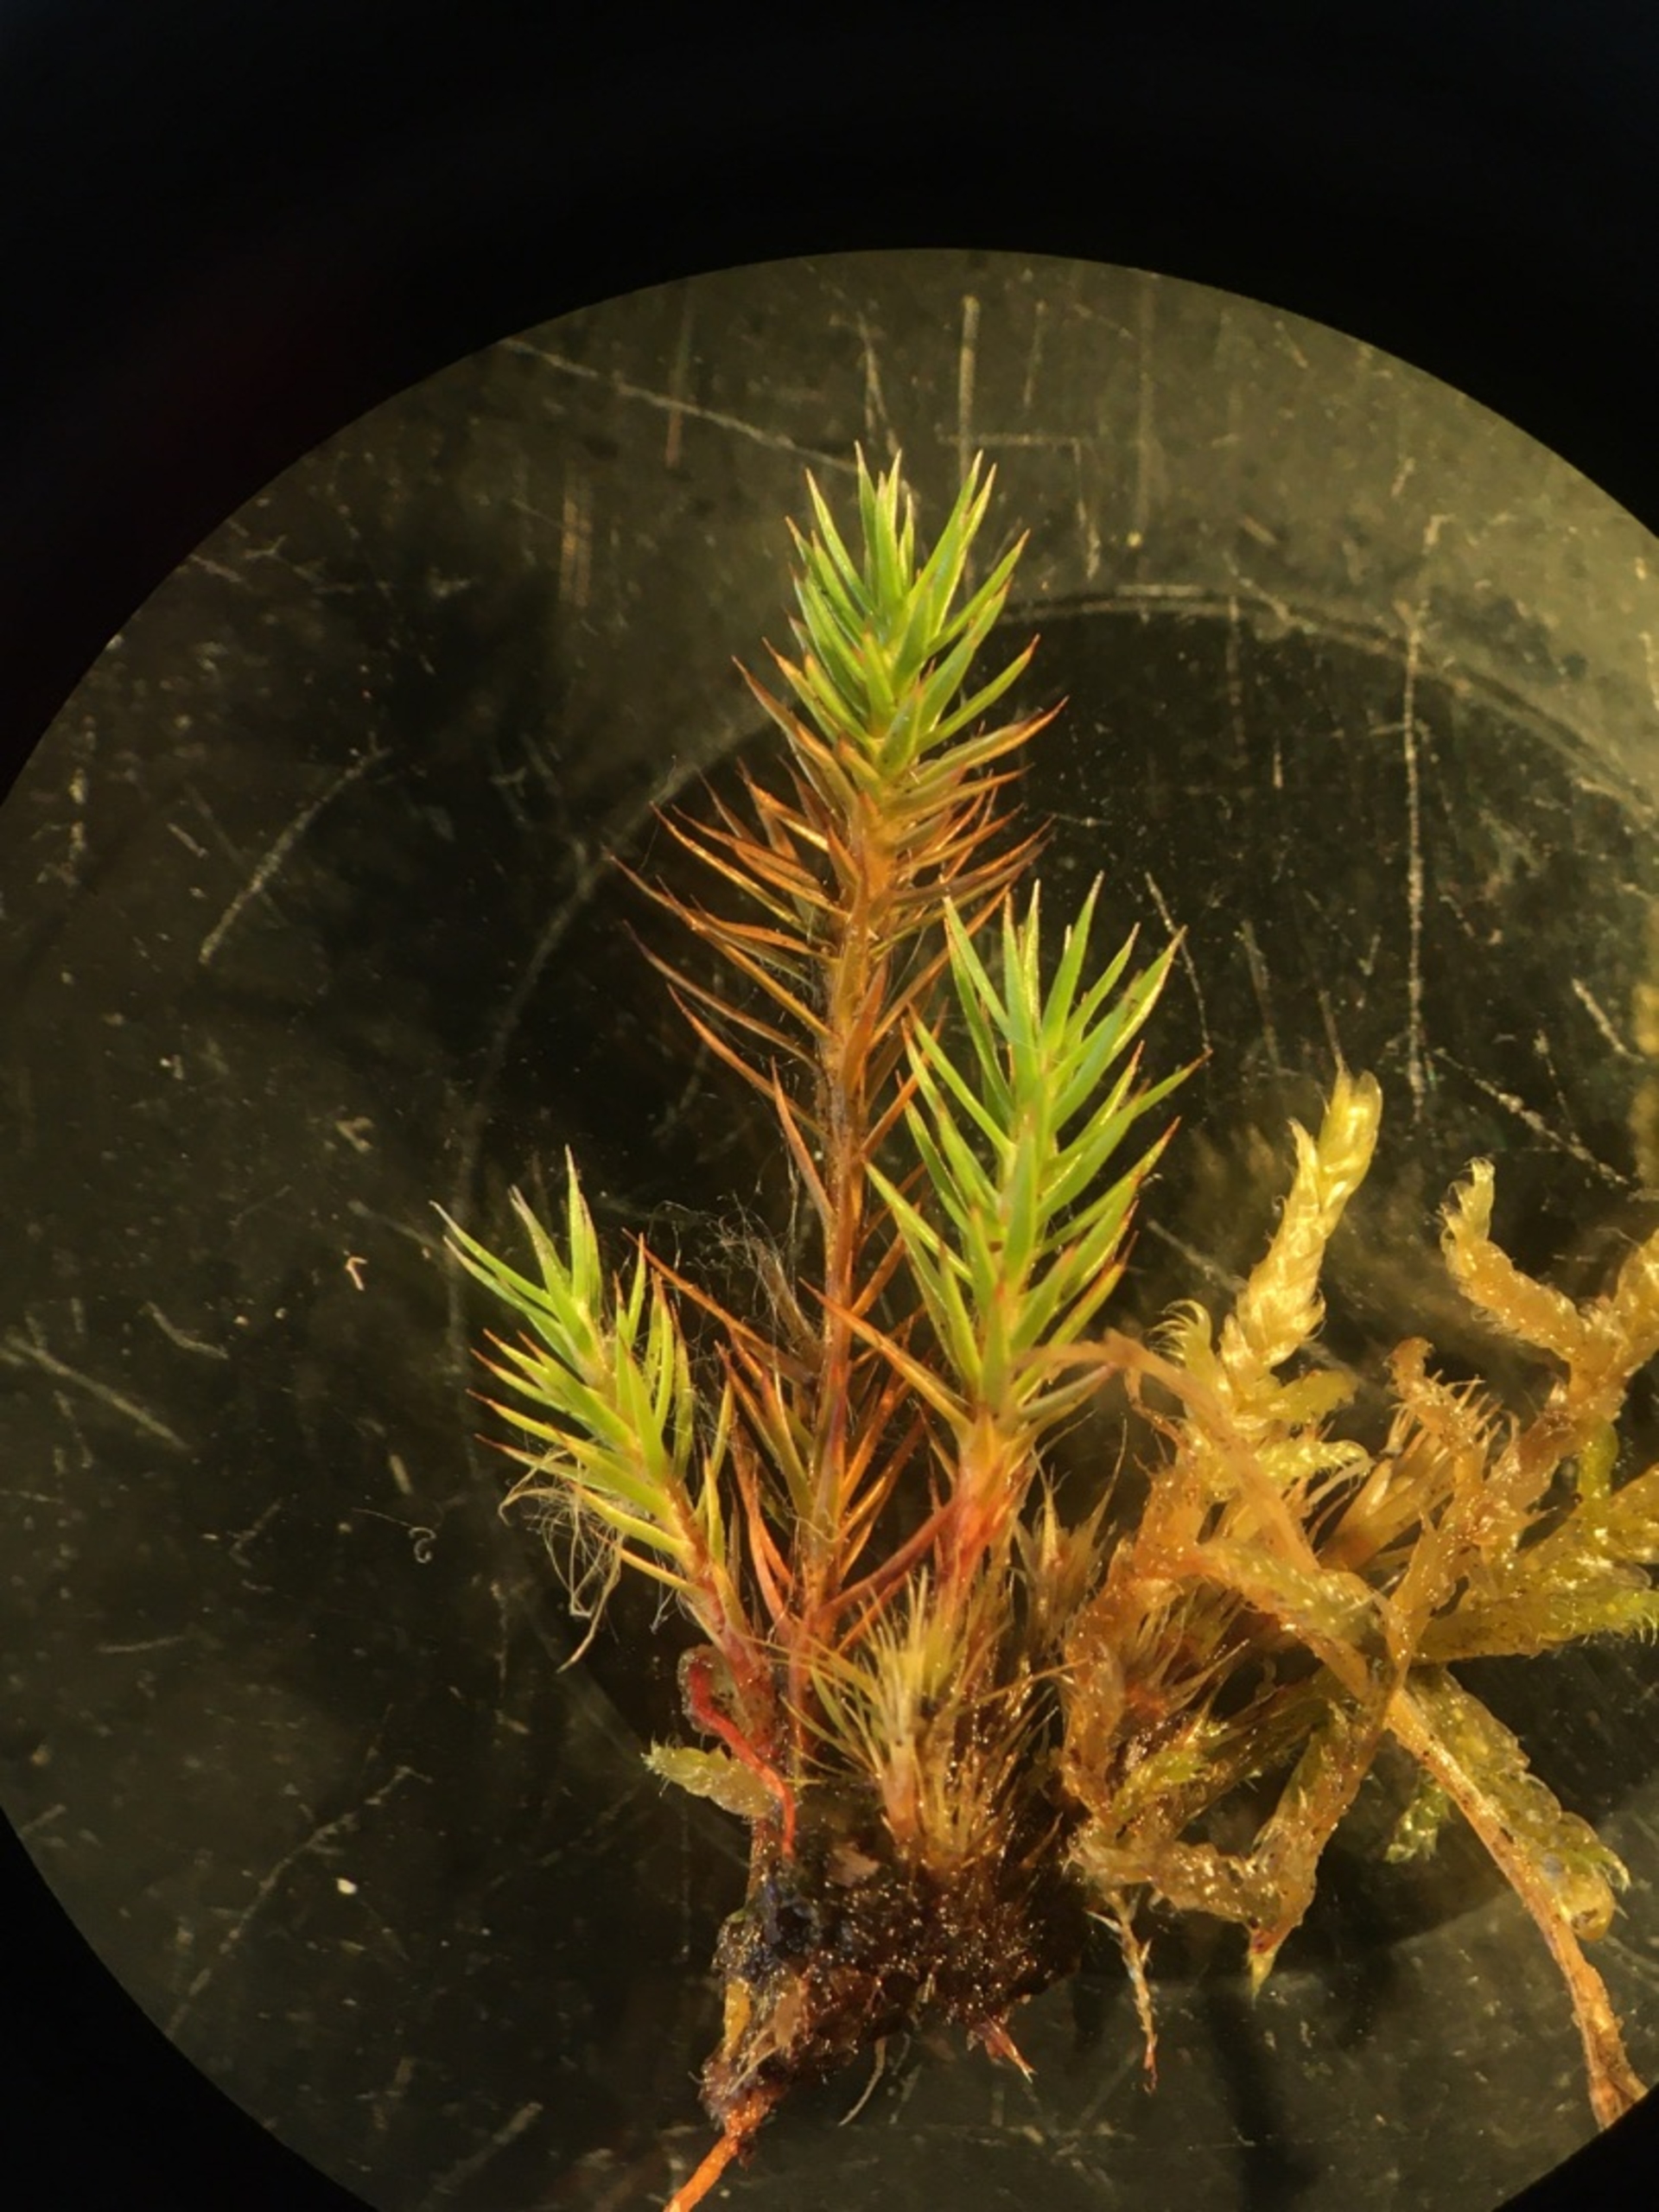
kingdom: Plantae
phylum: Bryophyta
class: Polytrichopsida
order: Polytrichales
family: Polytrichaceae
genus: Polytrichum
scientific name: Polytrichum strictum
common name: Filtstænglet jomfruhår
